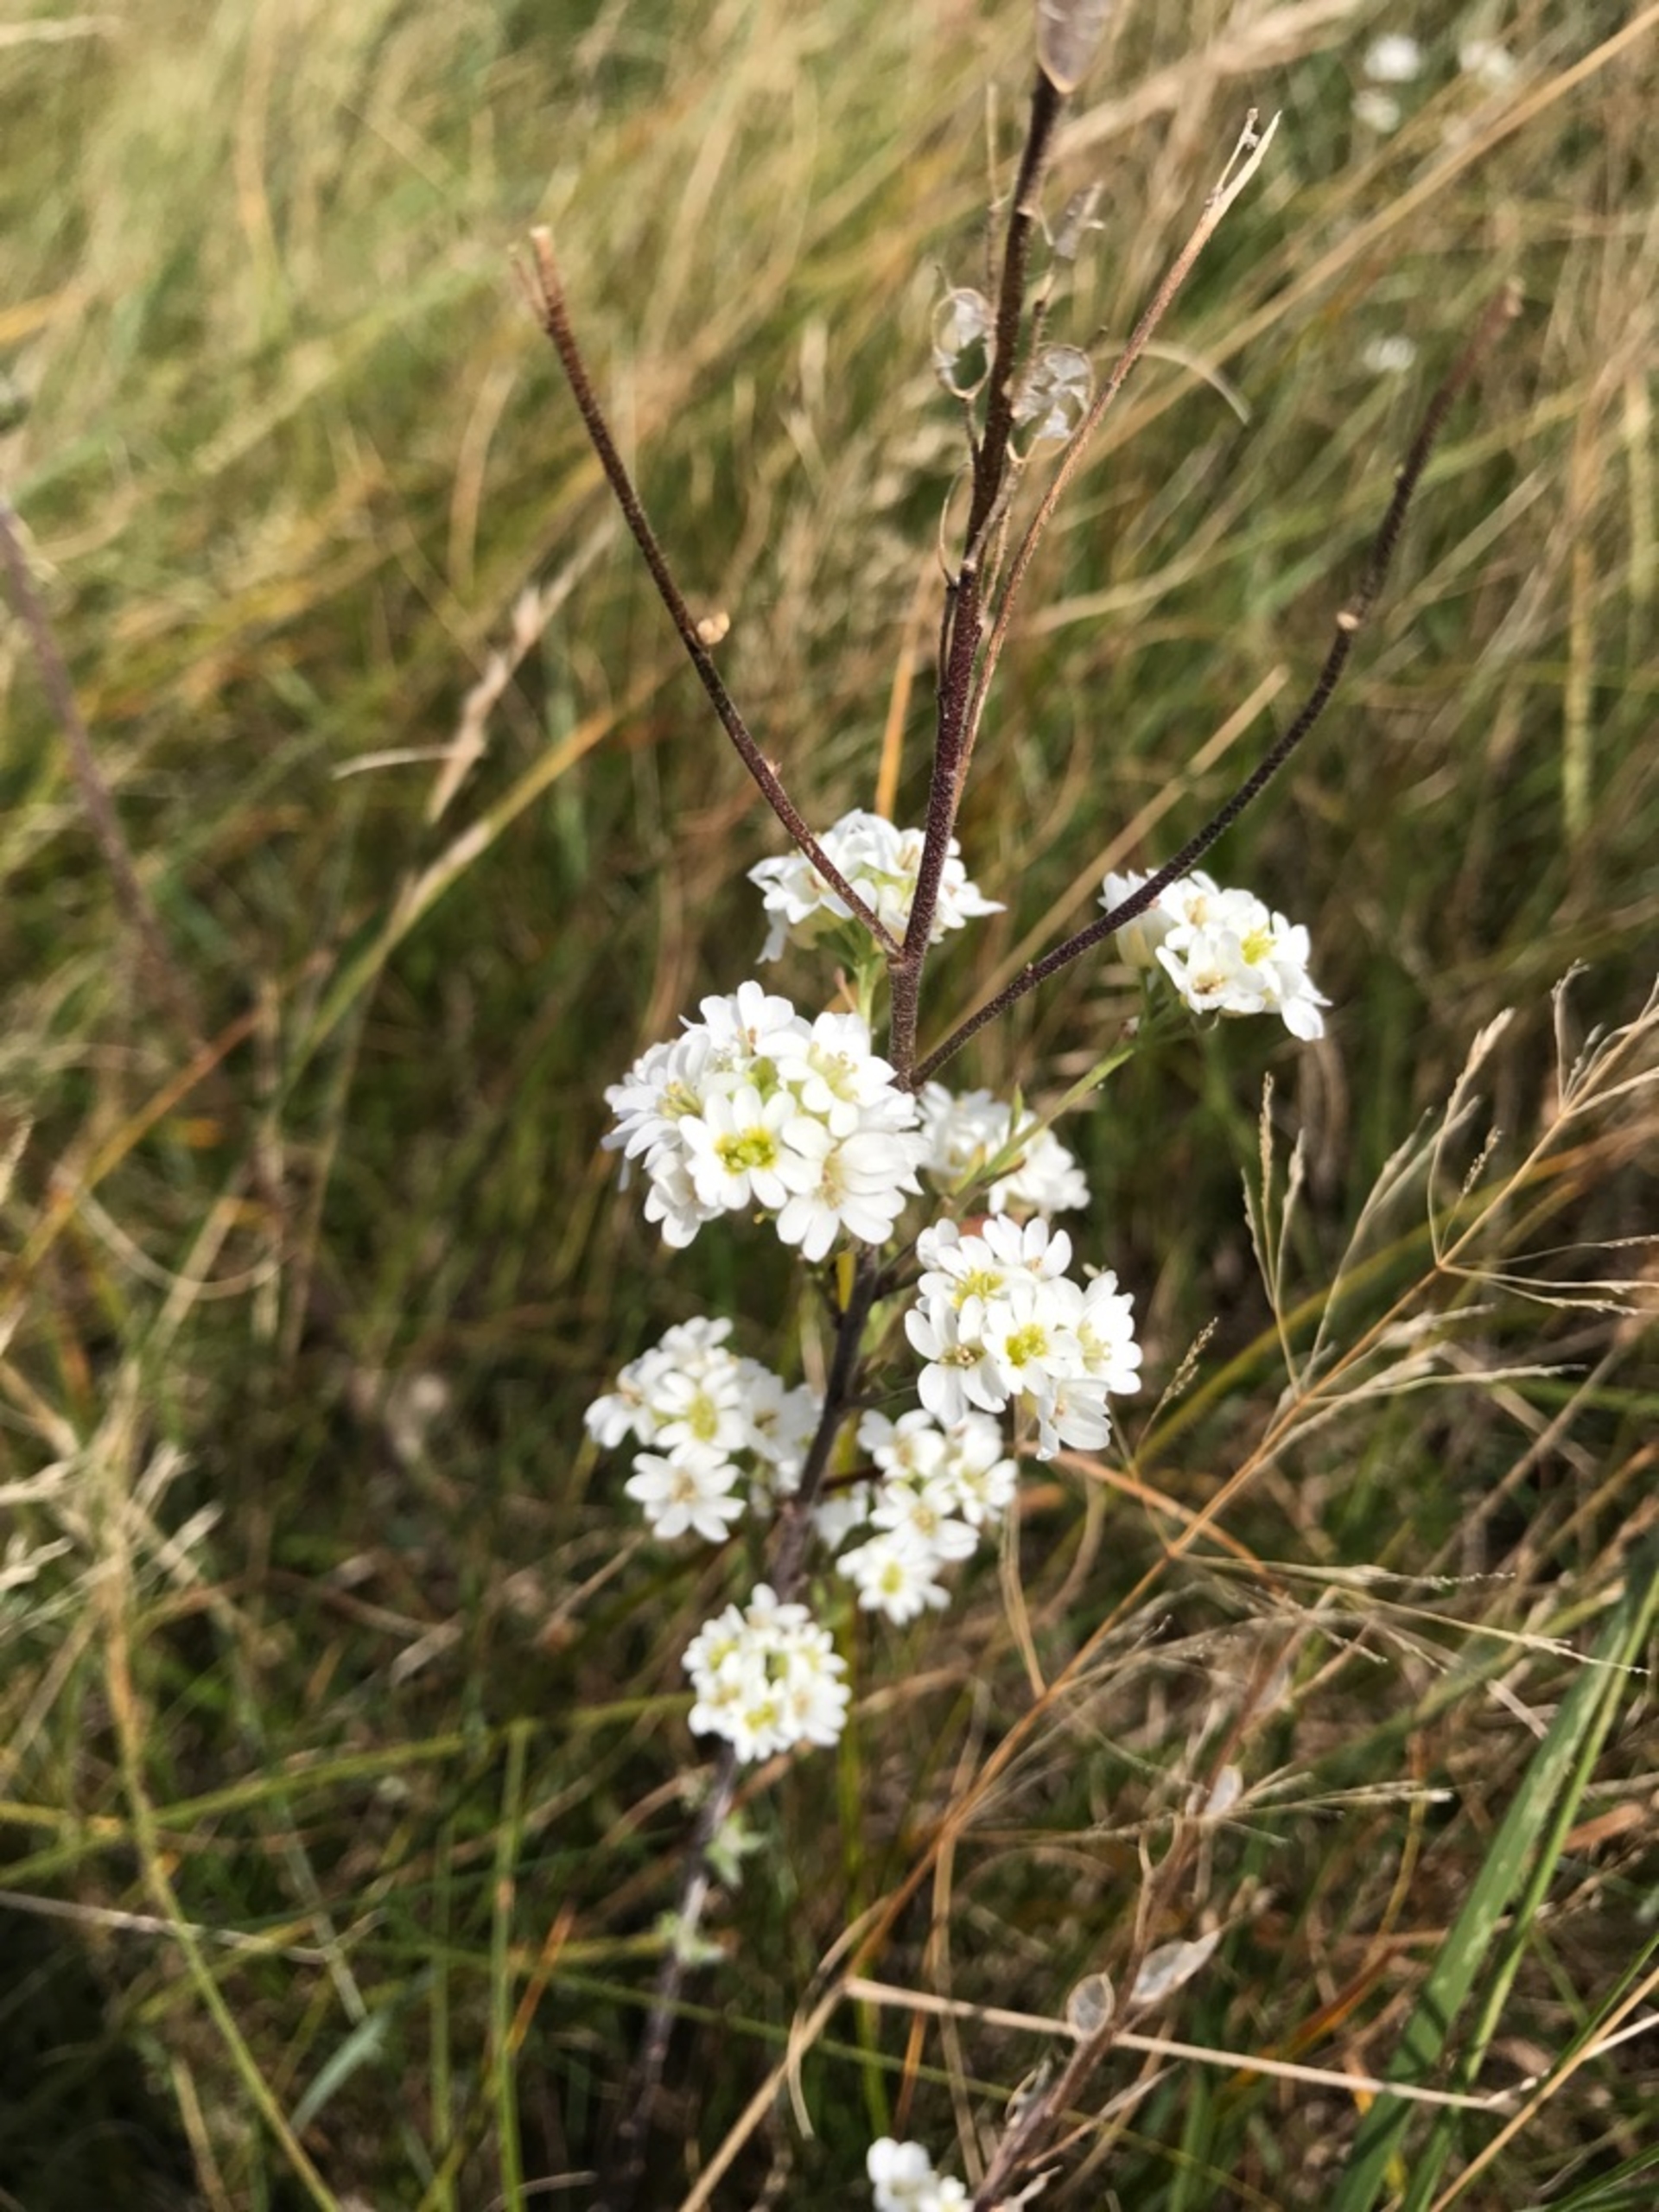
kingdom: Plantae
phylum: Tracheophyta
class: Magnoliopsida
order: Brassicales
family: Brassicaceae
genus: Berteroa
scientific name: Berteroa incana
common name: Kløvplade
